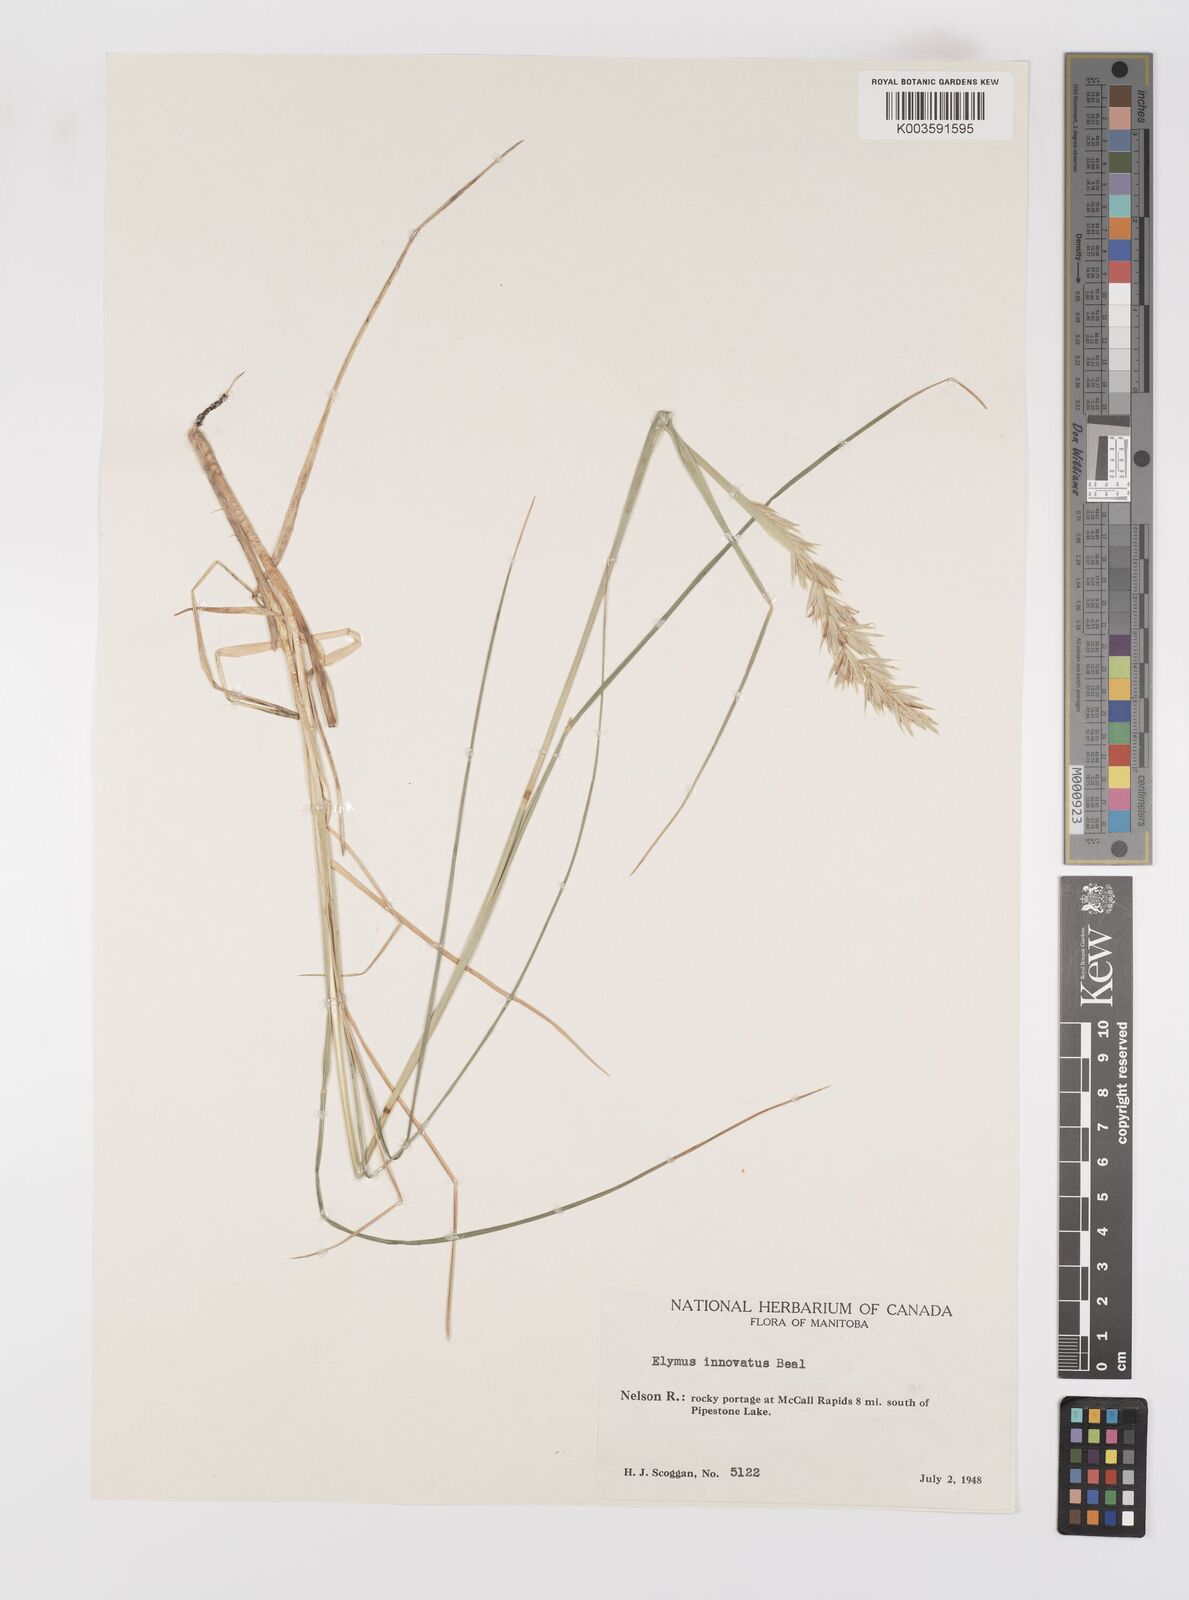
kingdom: Plantae
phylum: Tracheophyta
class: Liliopsida
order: Poales
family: Poaceae
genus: Leymus
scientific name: Leymus innovatus
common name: Boreal wild rye
